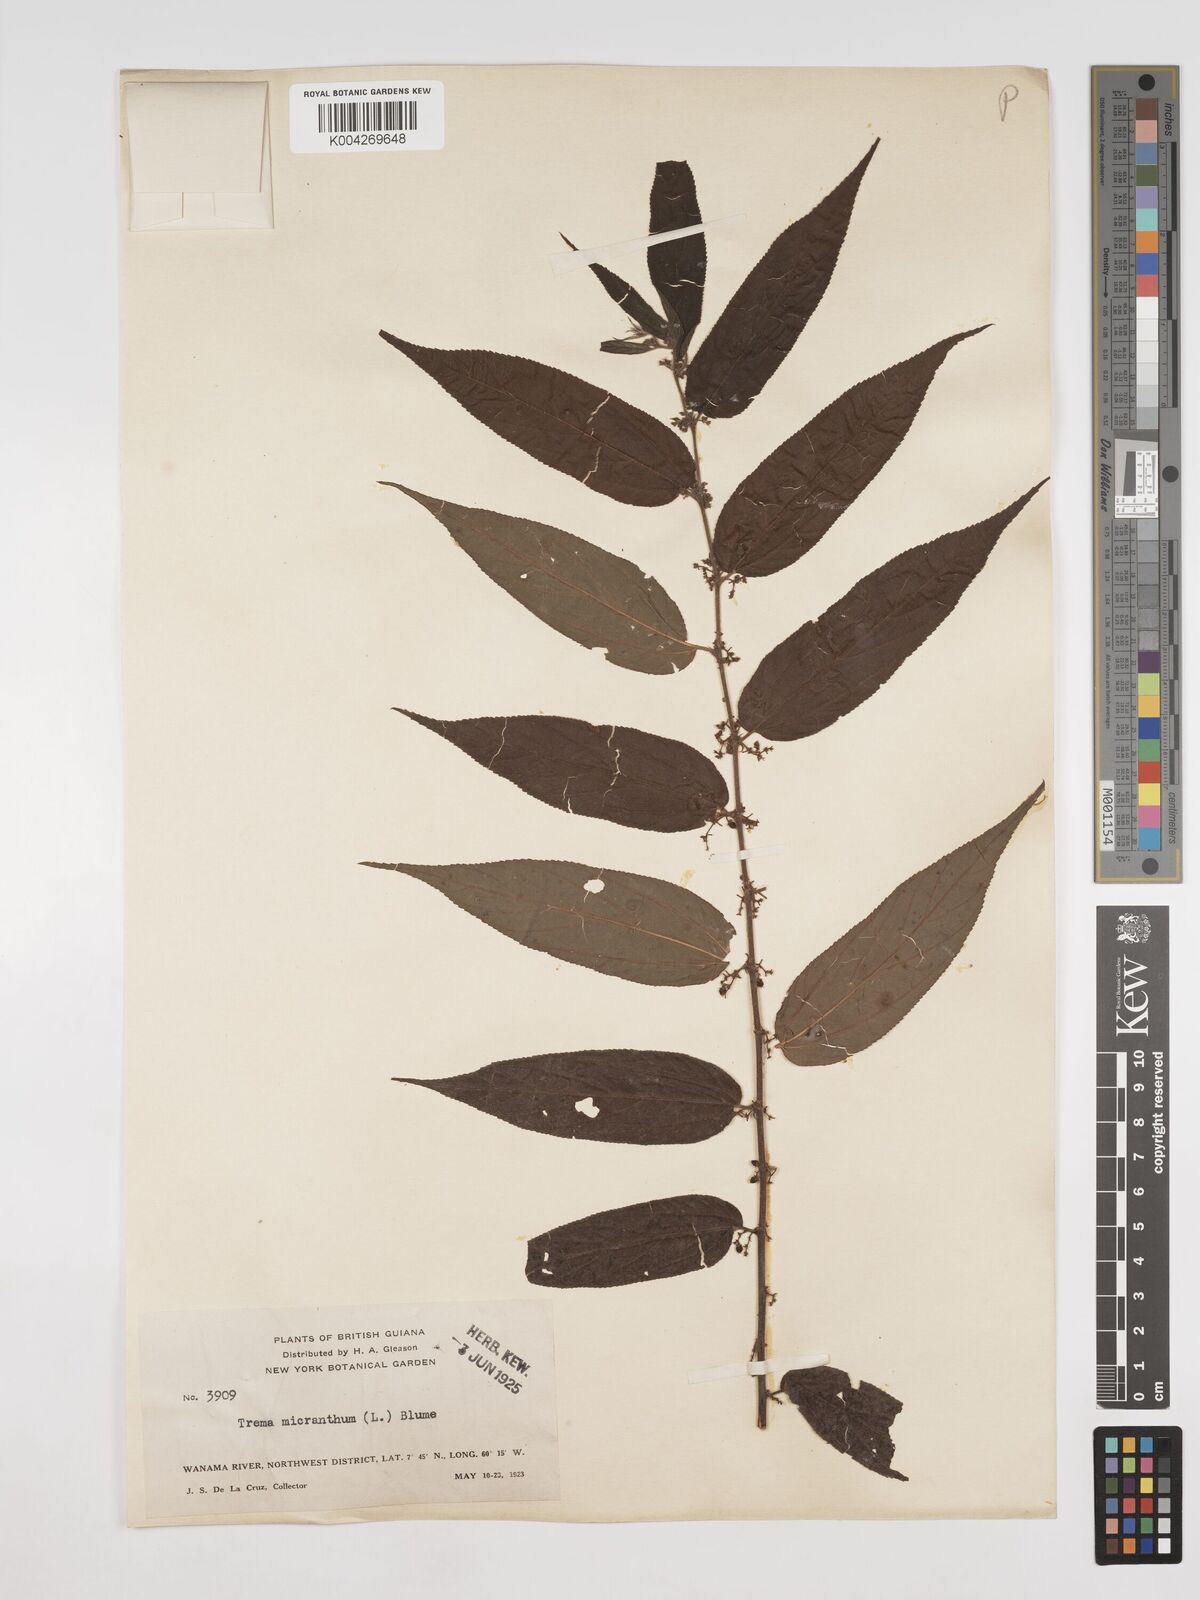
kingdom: Plantae
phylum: Tracheophyta
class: Magnoliopsida
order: Rosales
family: Cannabaceae
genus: Trema
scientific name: Trema micranthum
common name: Jamaican nettletree
